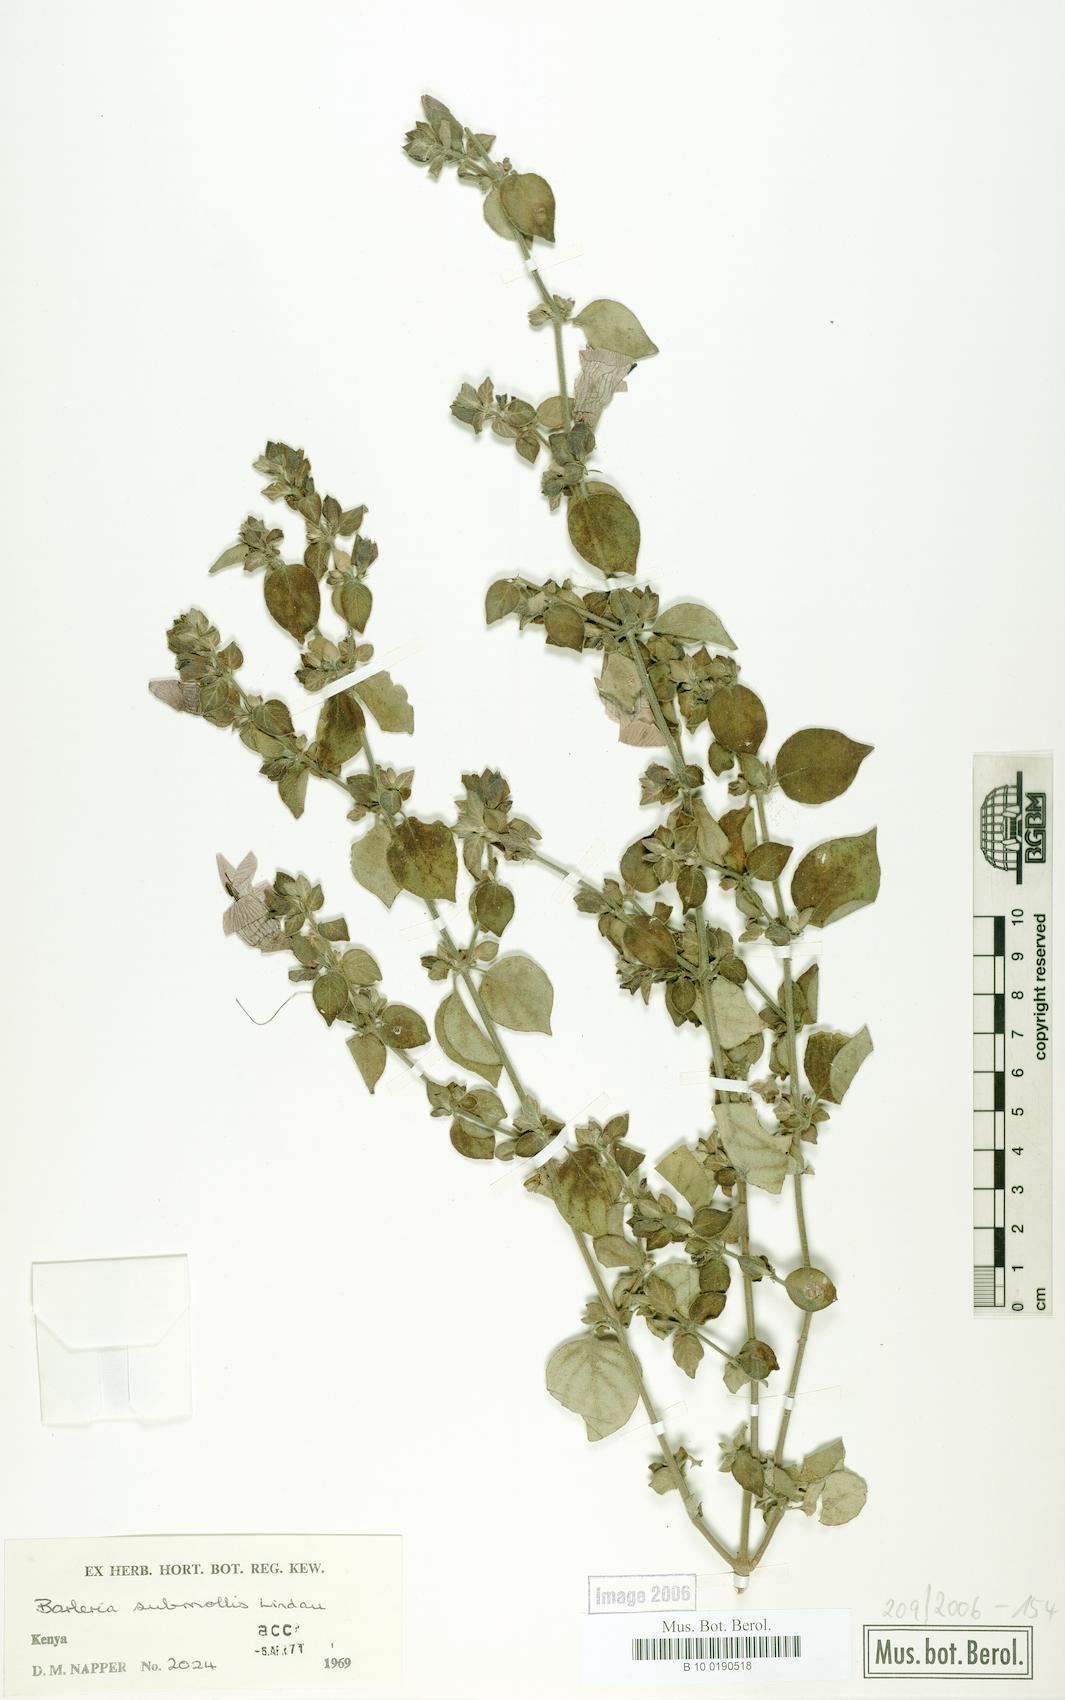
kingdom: Plantae
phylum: Tracheophyta
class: Magnoliopsida
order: Lamiales
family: Acanthaceae
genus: Barleria
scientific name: Barleria submollis
